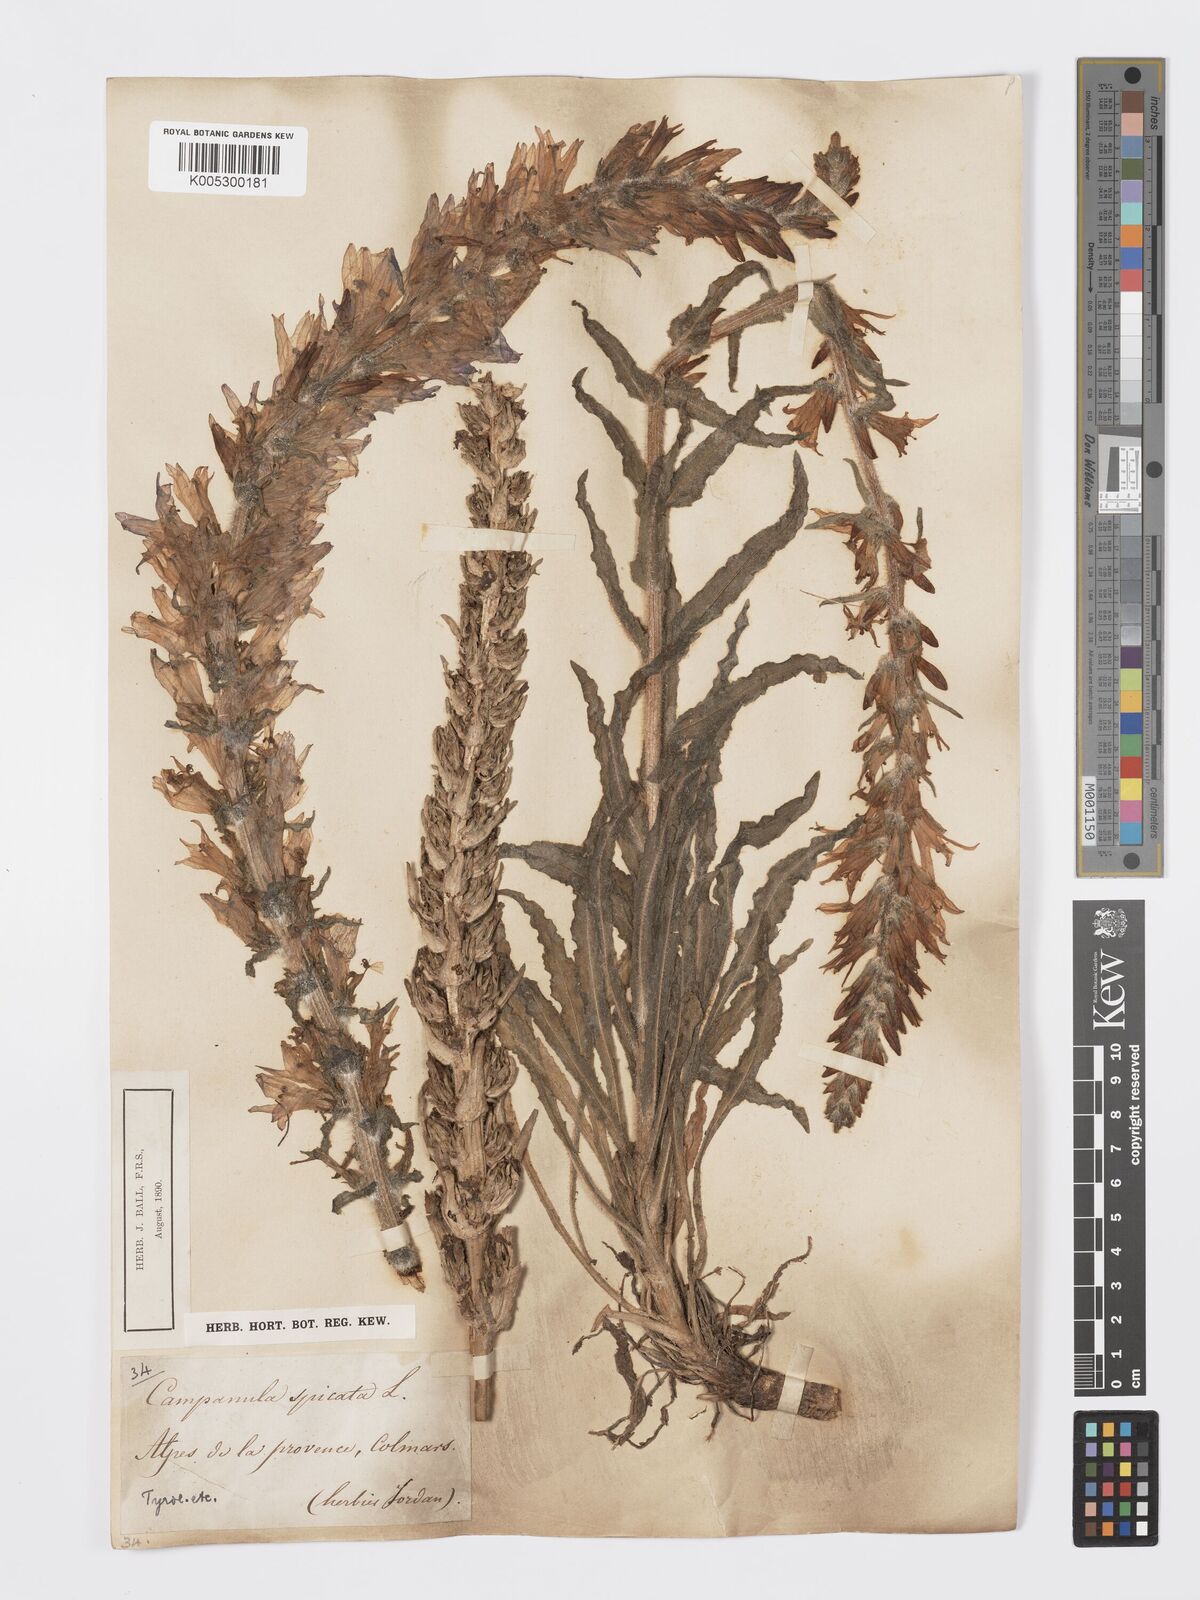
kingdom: Plantae
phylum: Tracheophyta
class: Magnoliopsida
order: Asterales
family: Campanulaceae
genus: Campanula
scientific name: Campanula spicata
